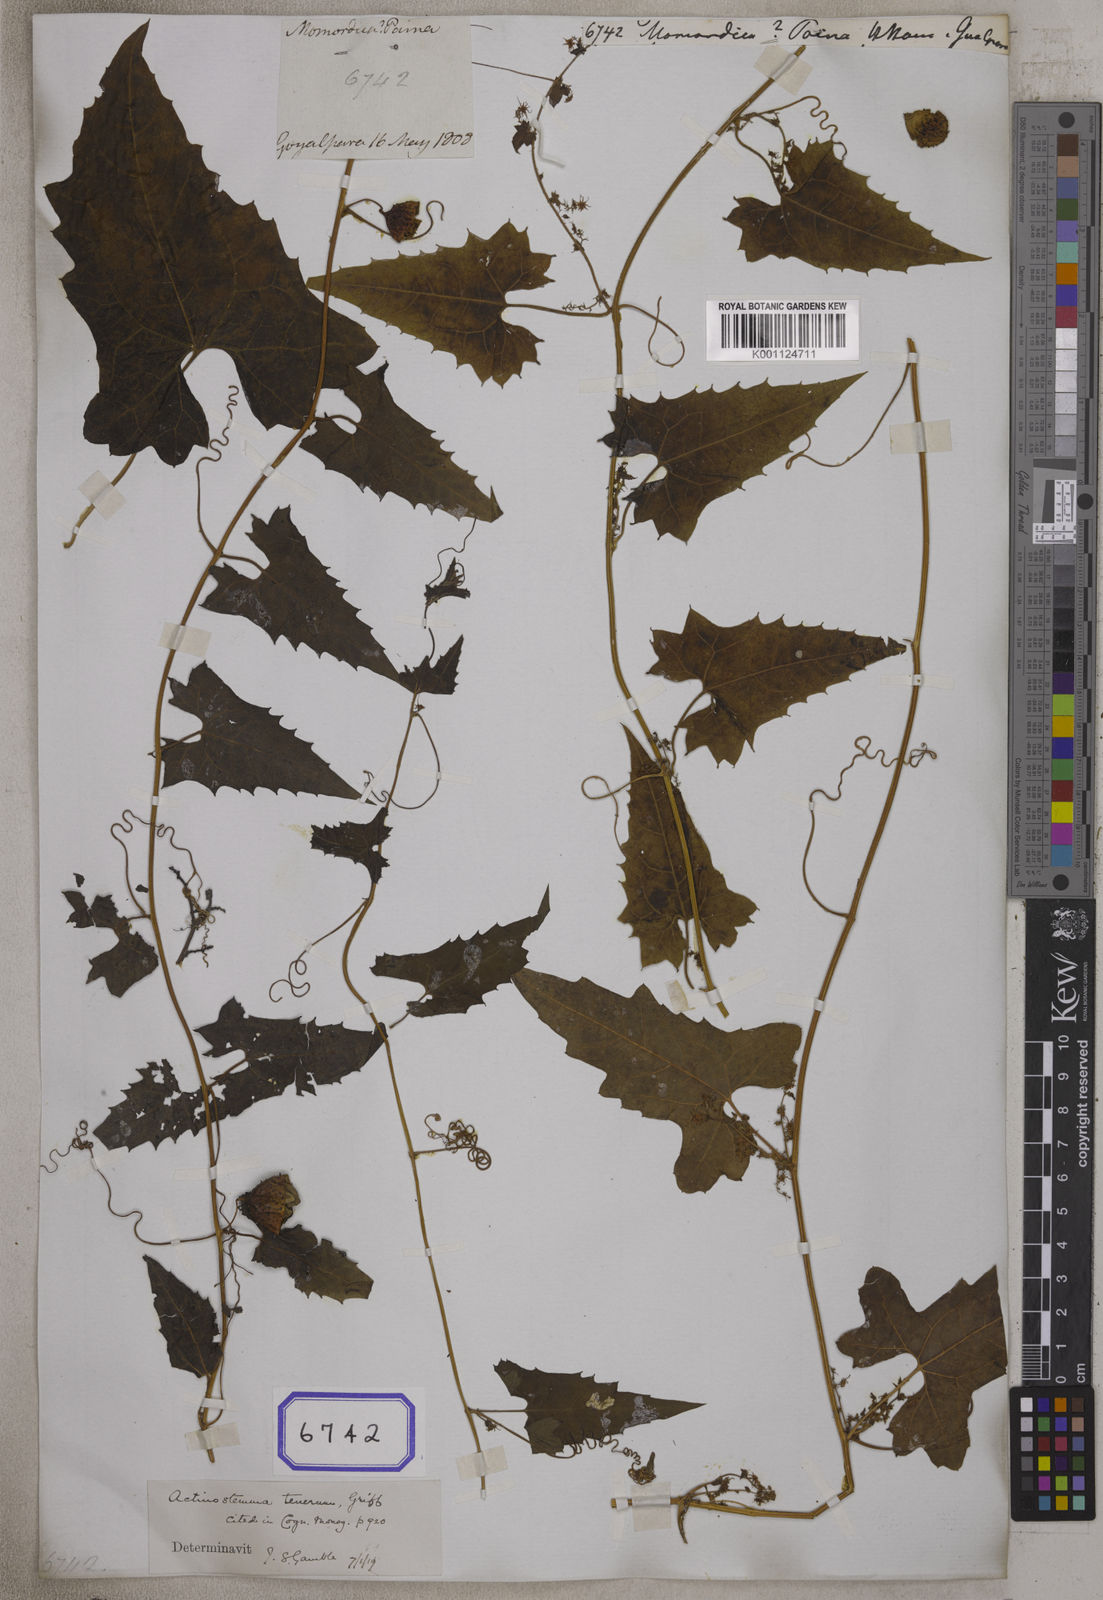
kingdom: Plantae
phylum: Tracheophyta
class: Magnoliopsida
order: Cucurbitales
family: Cucurbitaceae
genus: Momordica
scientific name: Momordica
